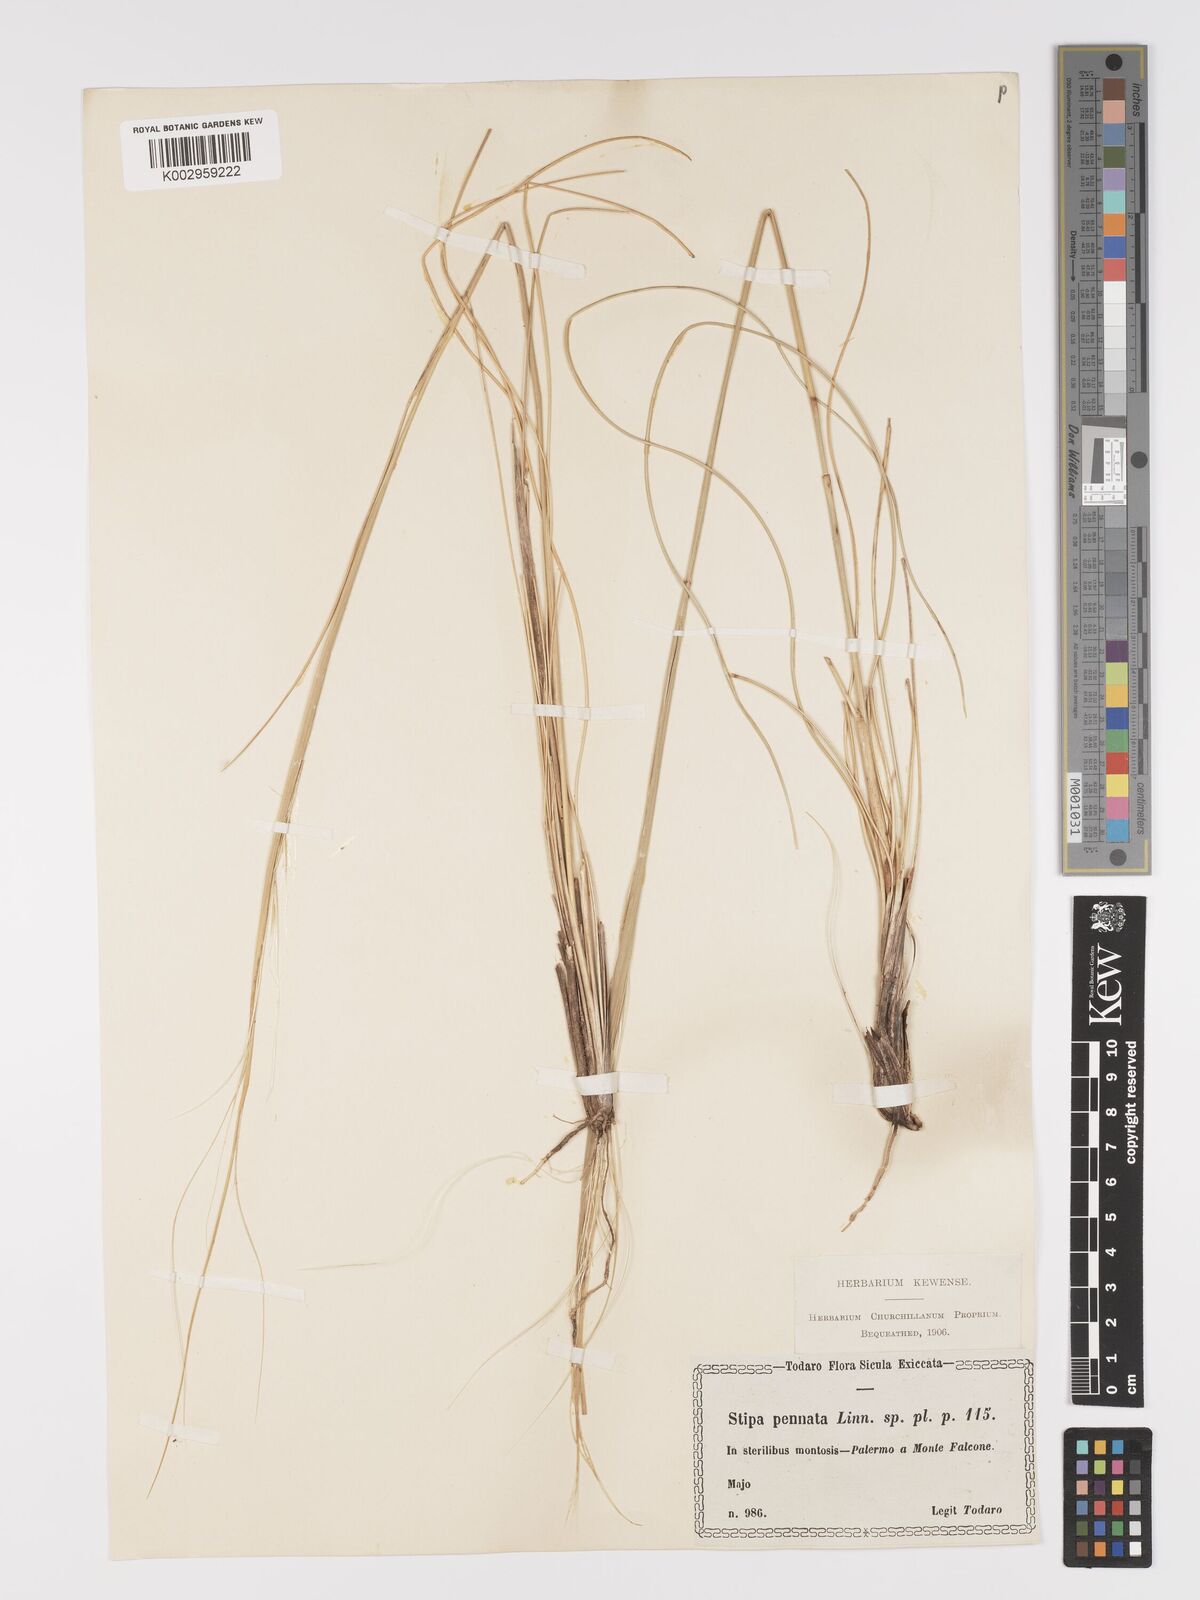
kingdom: Plantae
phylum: Tracheophyta
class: Liliopsida
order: Poales
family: Poaceae
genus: Stipa
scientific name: Stipa pennata
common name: European feather grass
